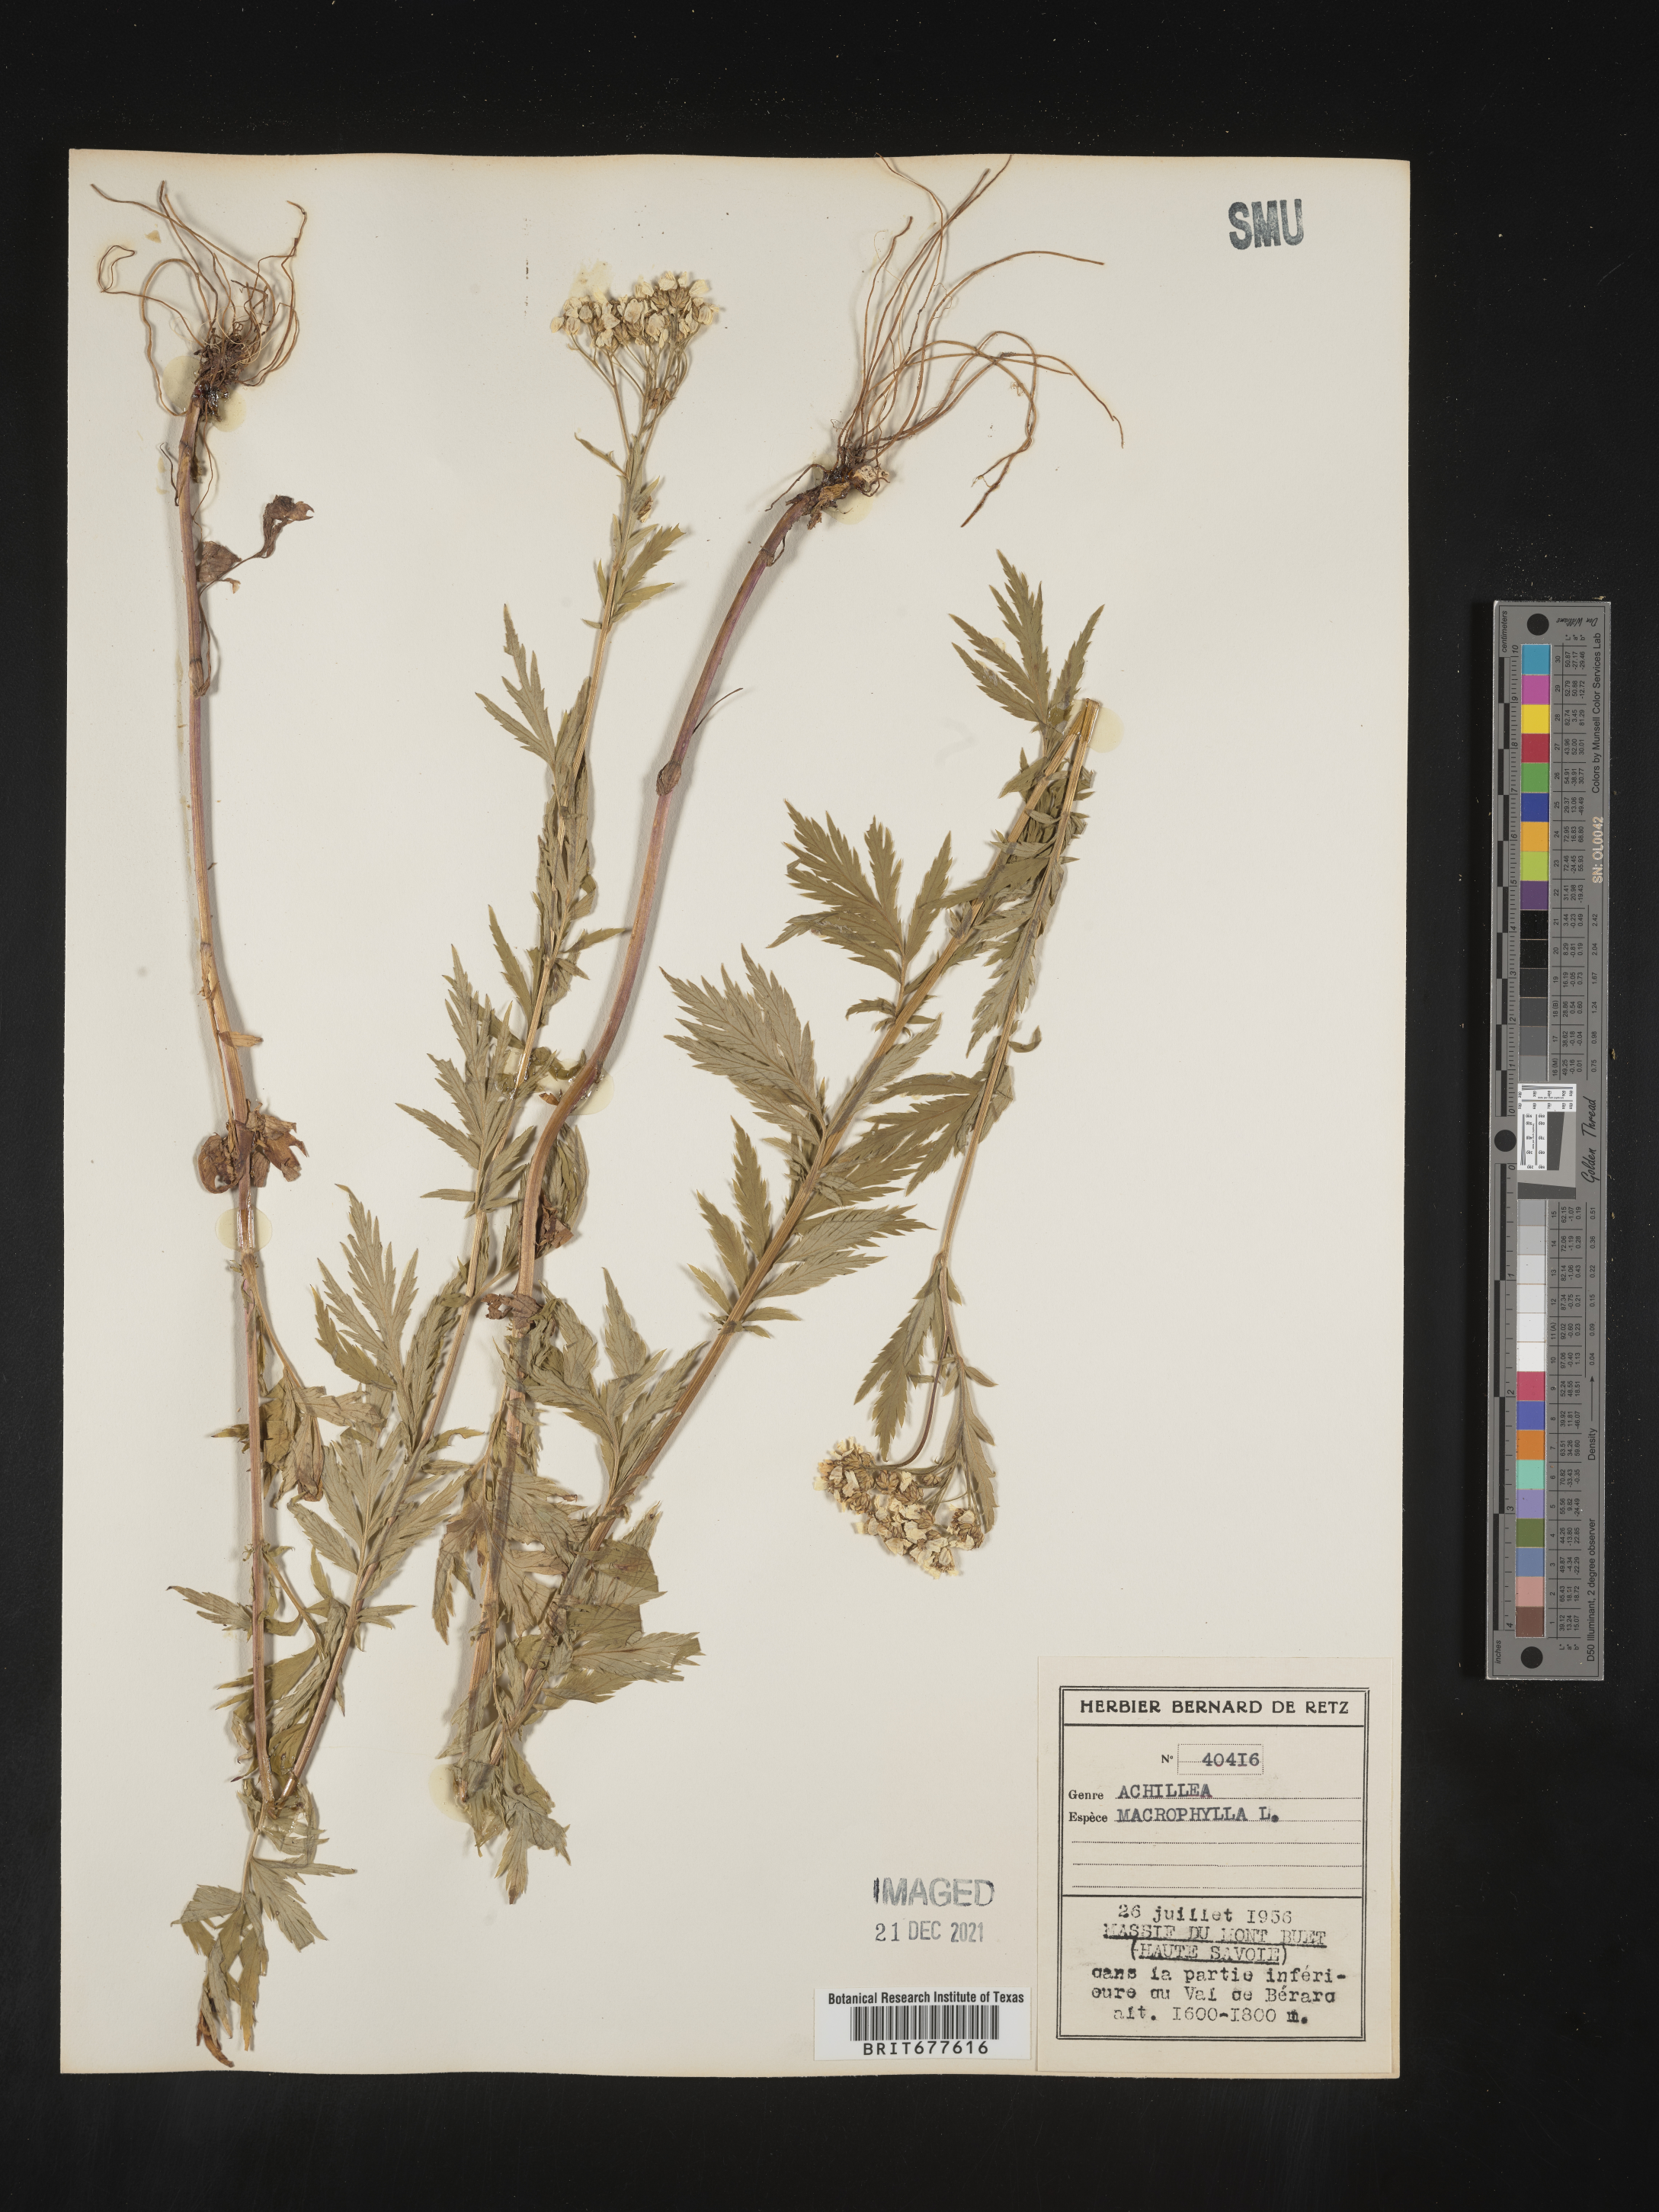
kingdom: Plantae
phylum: Tracheophyta
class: Magnoliopsida
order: Asterales
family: Asteraceae
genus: Achillea
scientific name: Achillea millefolium
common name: Yarrow
